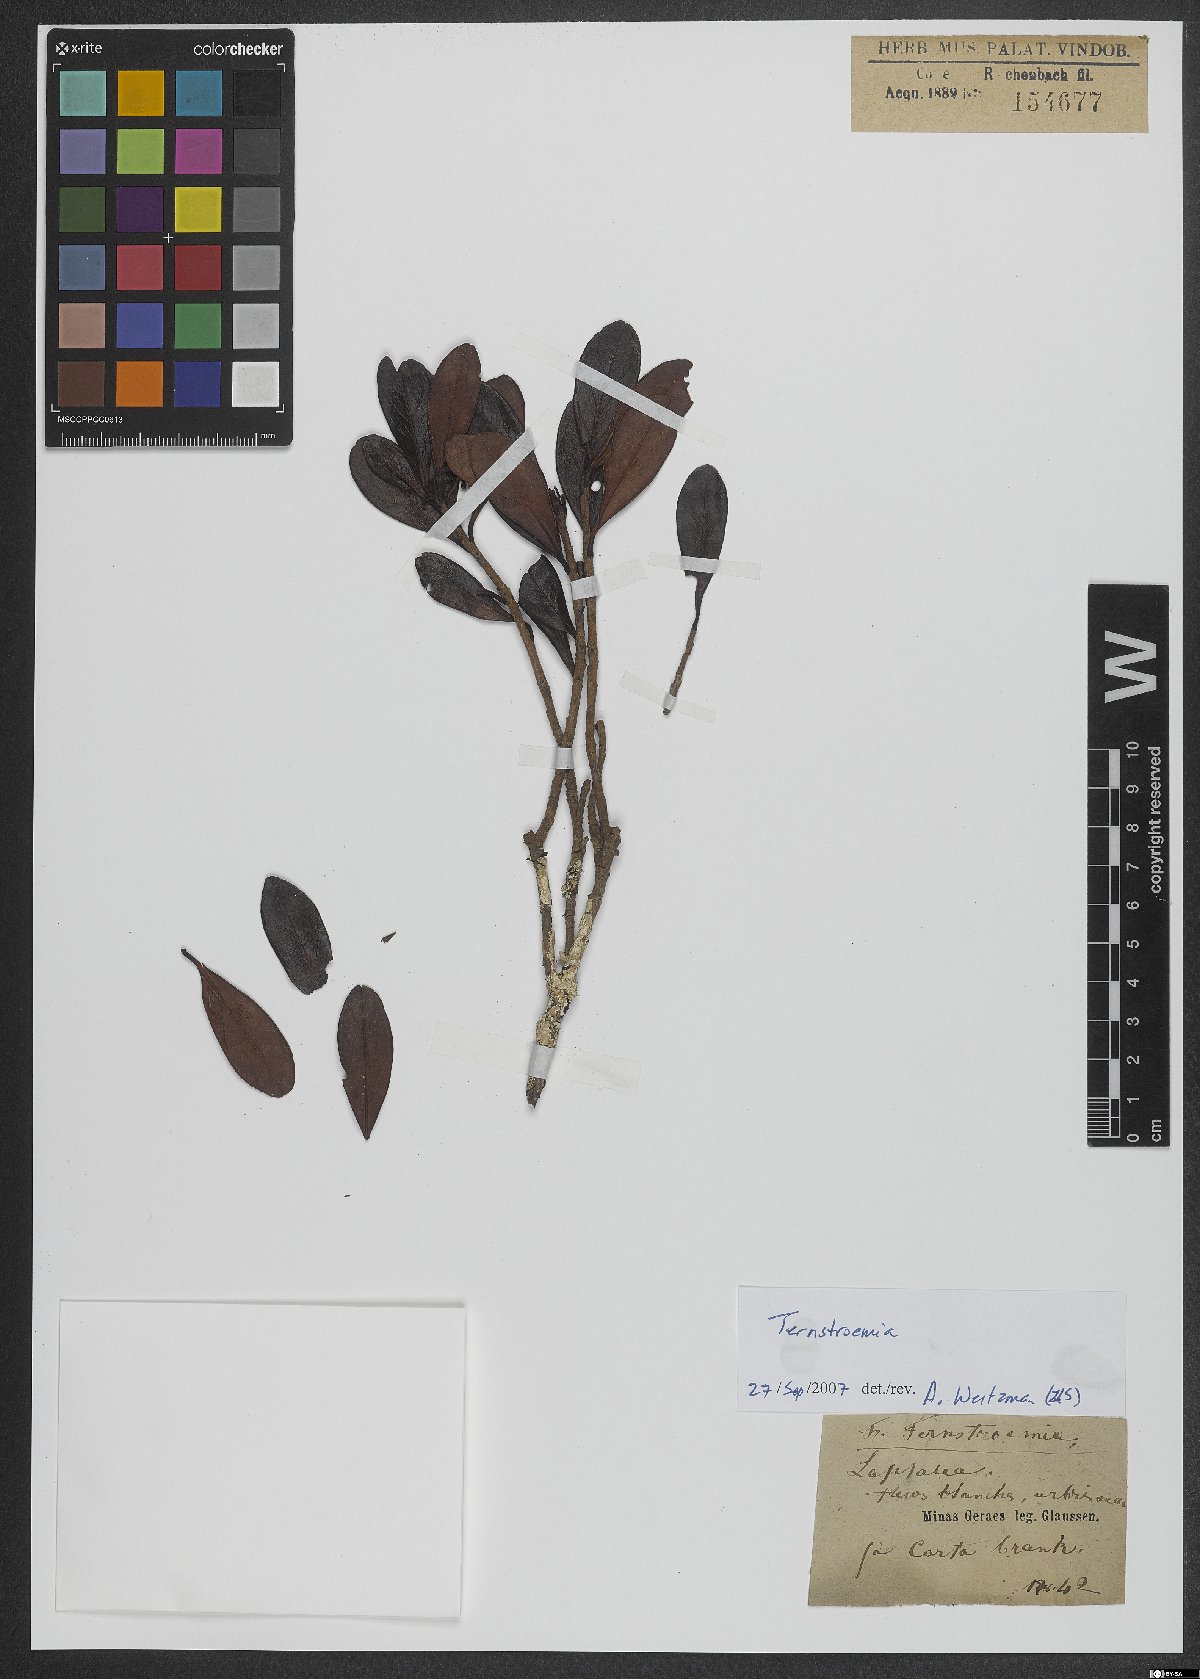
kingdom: Plantae
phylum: Tracheophyta
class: Magnoliopsida
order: Ericales
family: Pentaphylacaceae
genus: Ternstroemia
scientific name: Ternstroemia
